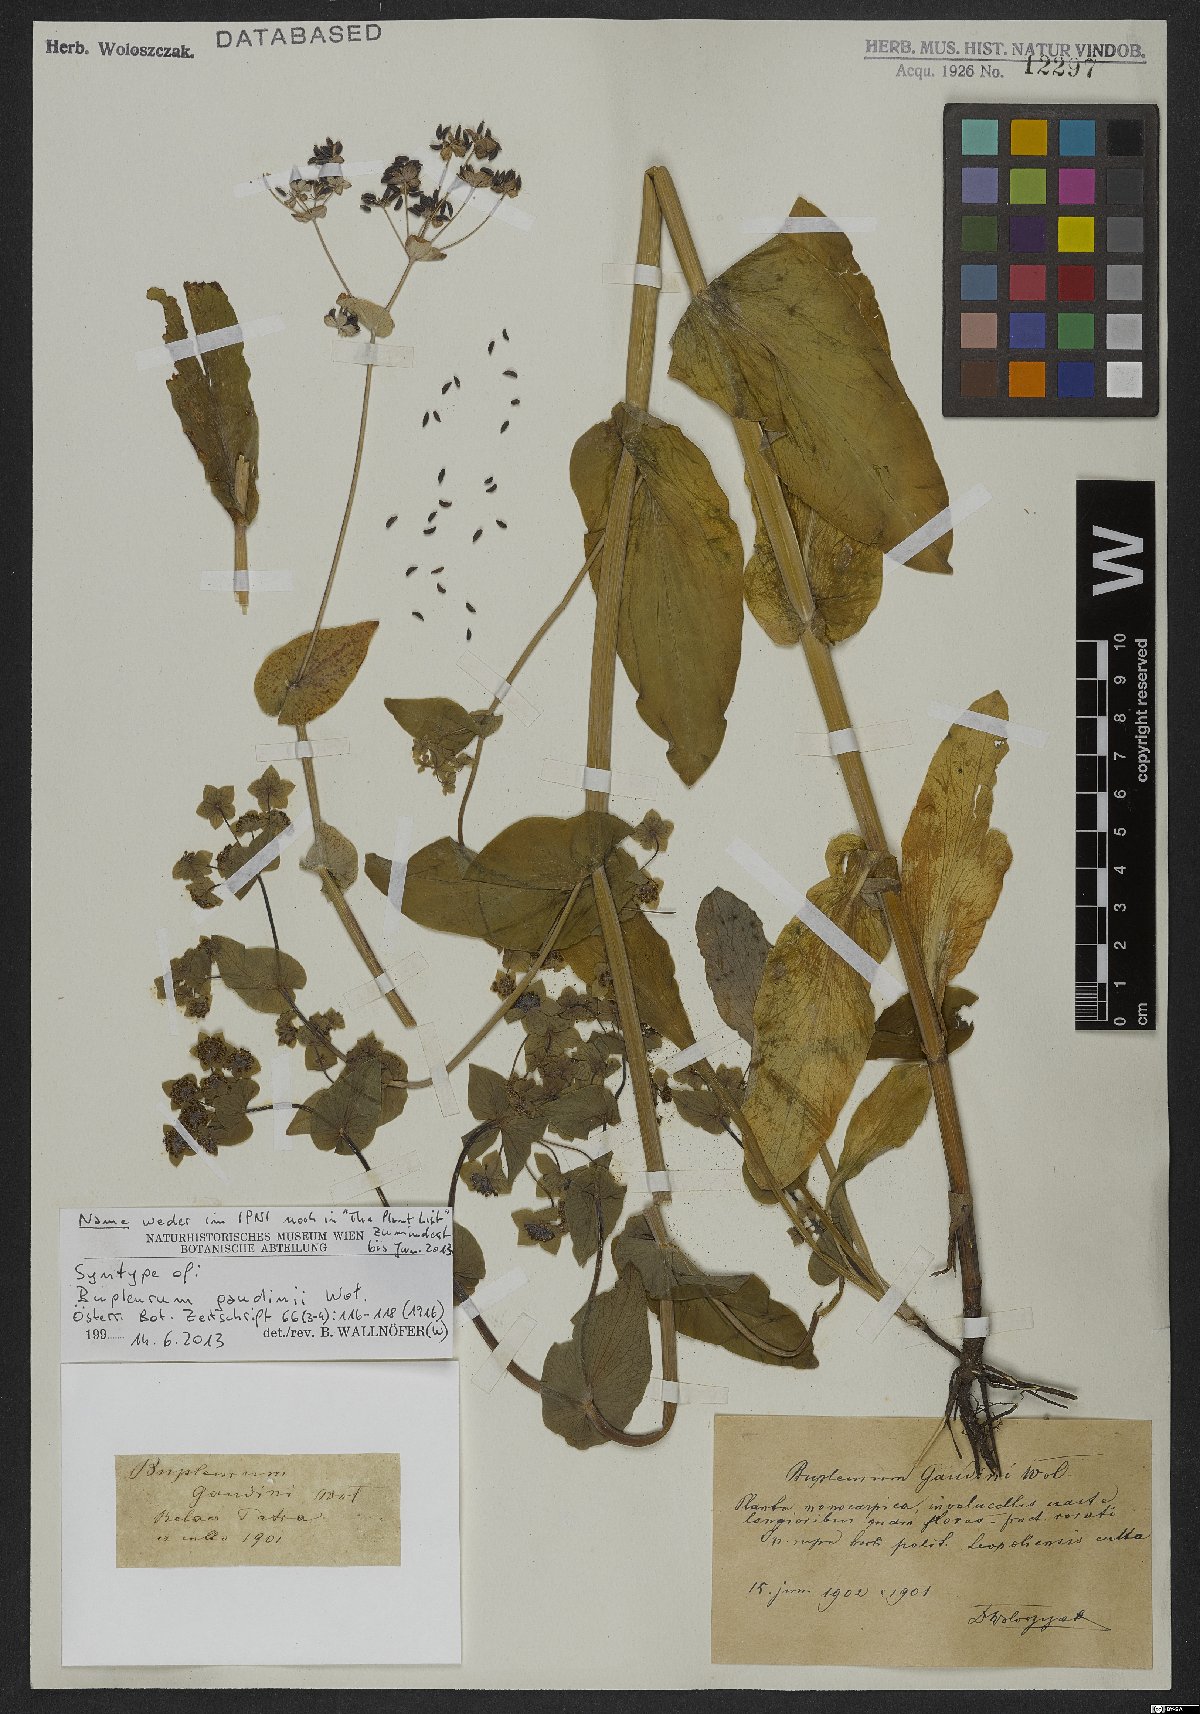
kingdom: Plantae
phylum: Tracheophyta
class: Magnoliopsida
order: Apiales
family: Apiaceae
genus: Bupleurum
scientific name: Bupleurum subovatum
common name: False thorow-wax
